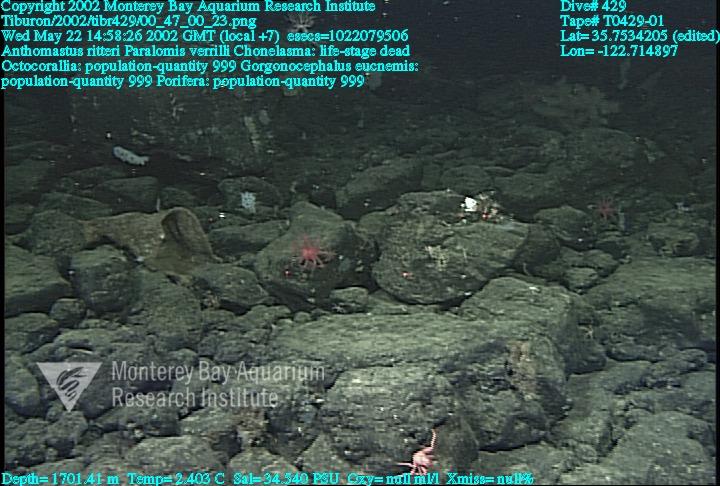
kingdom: Animalia
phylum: Porifera
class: Hexactinellida
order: Sceptrulophora
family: Euretidae
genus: Chonelasma
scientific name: Chonelasma
